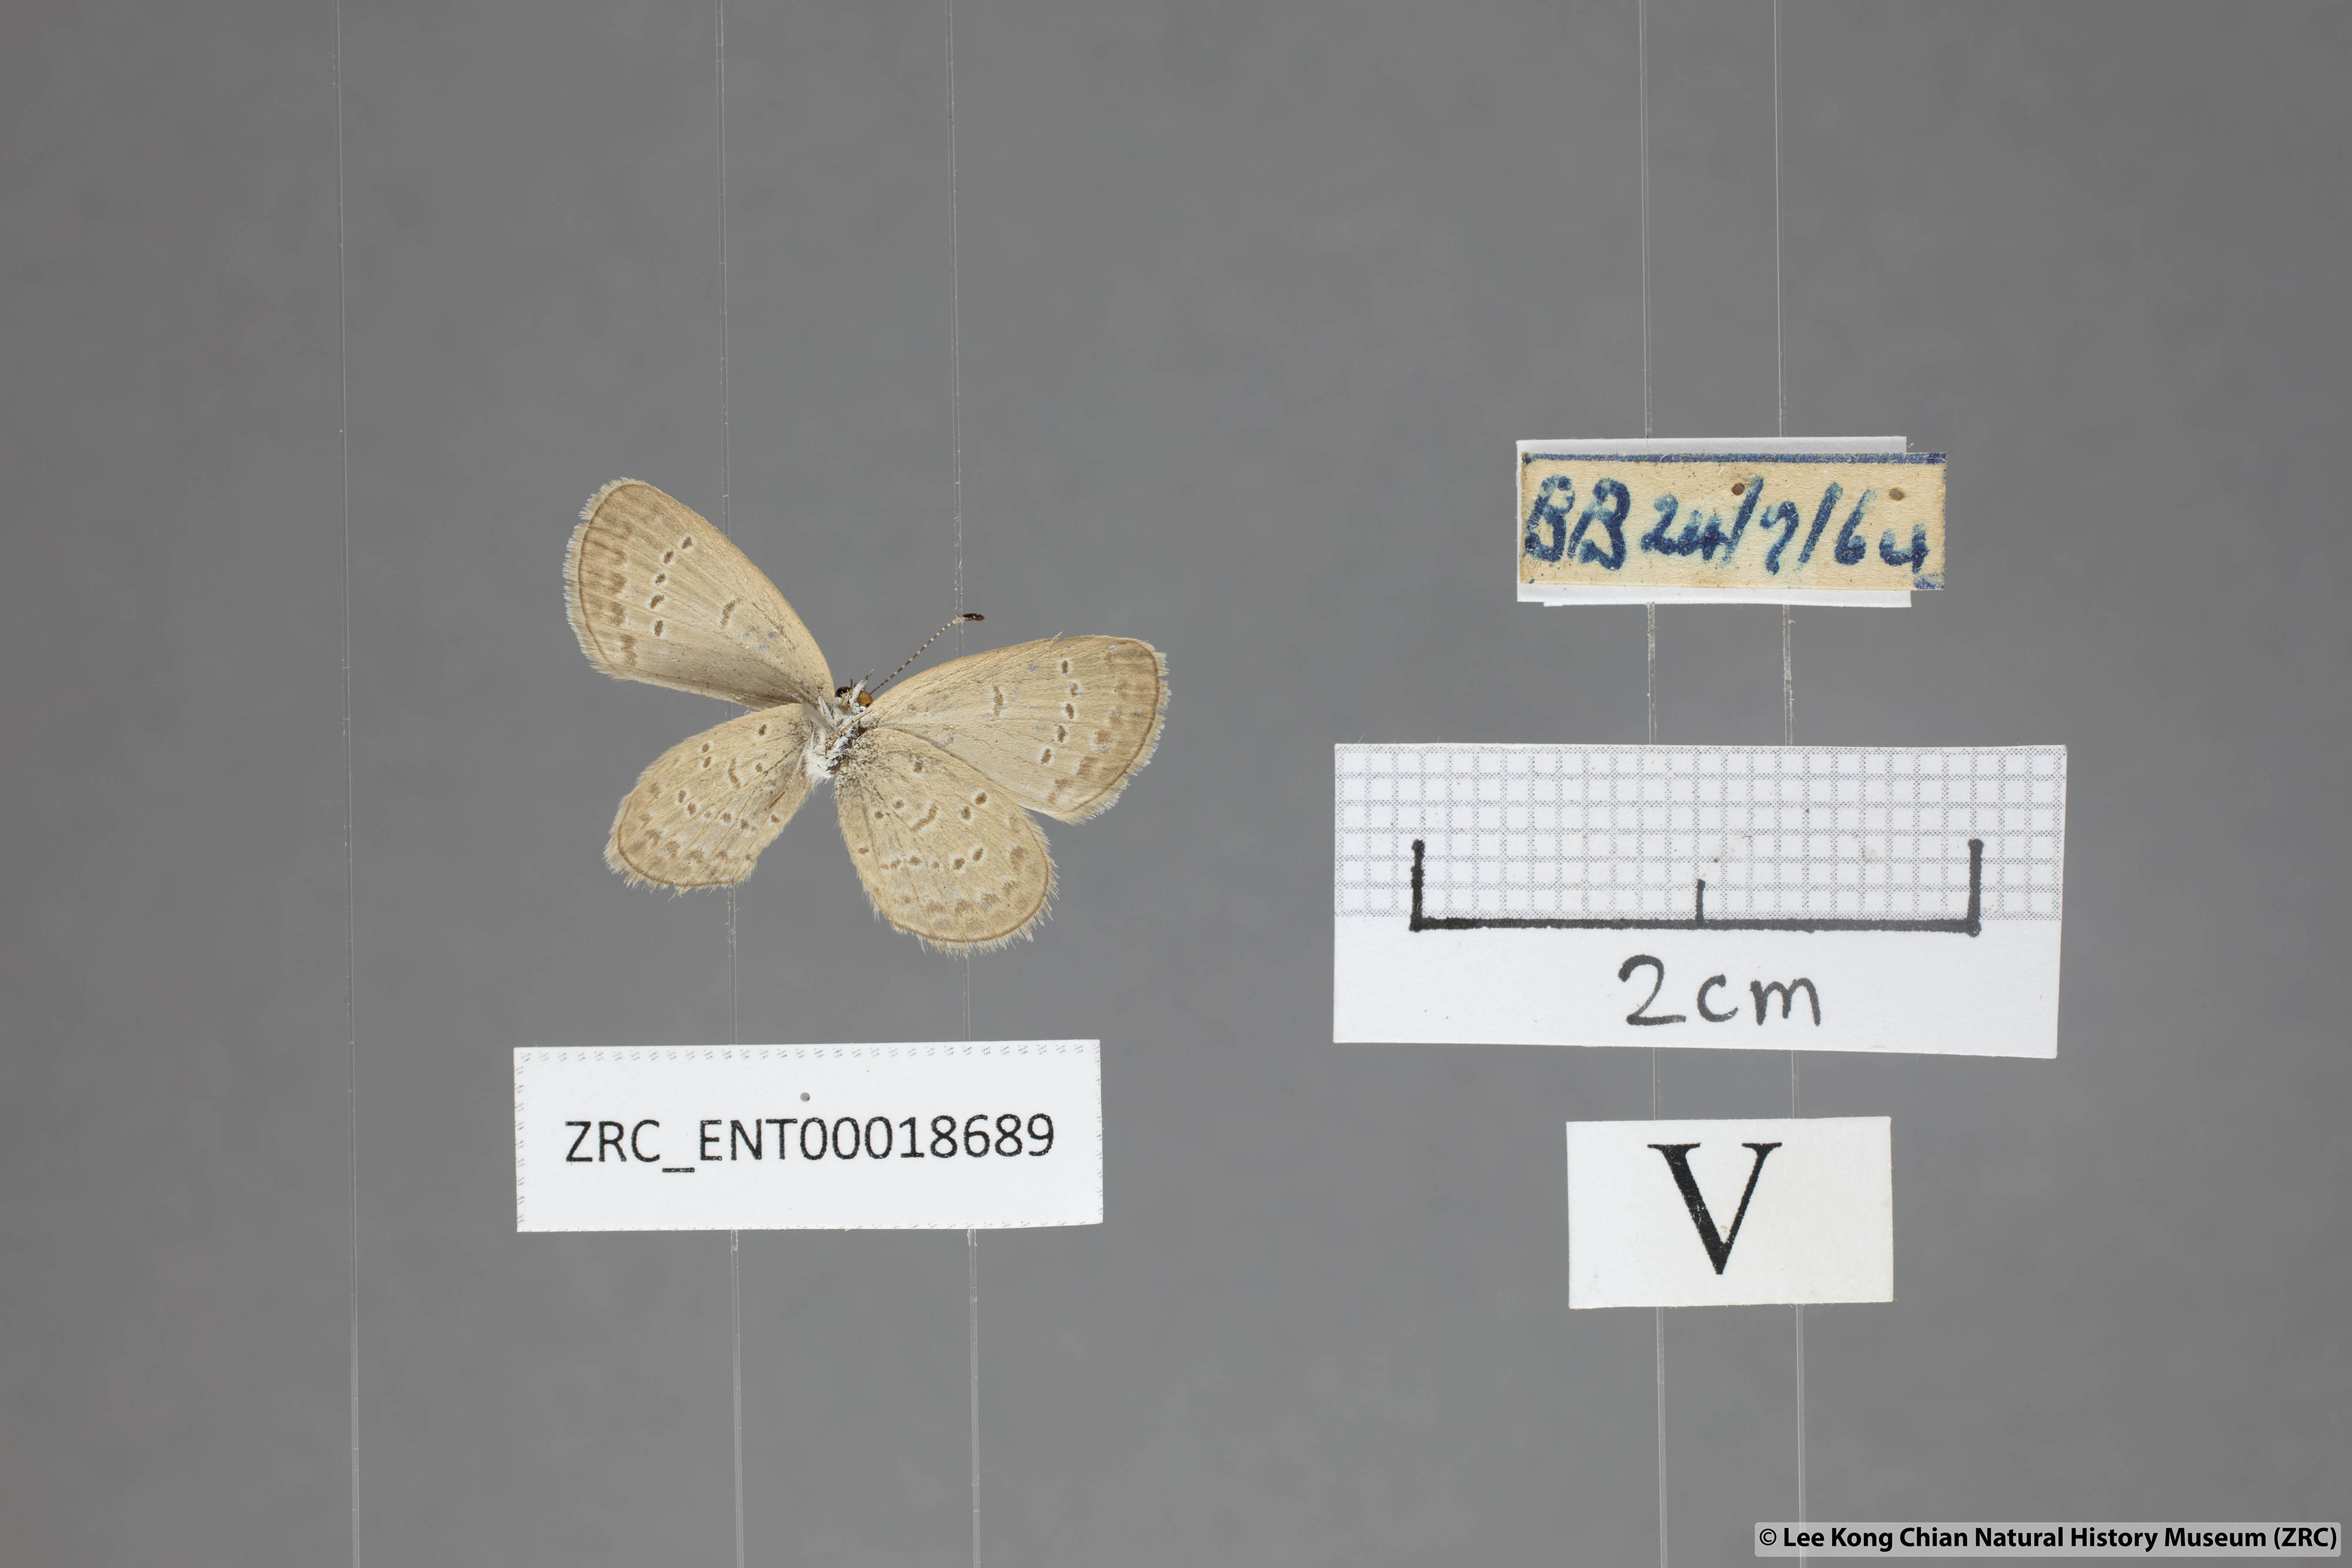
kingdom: Animalia
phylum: Arthropoda
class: Insecta
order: Lepidoptera
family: Lycaenidae
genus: Zizina
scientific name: Zizina otis
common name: Lesser grass blue
